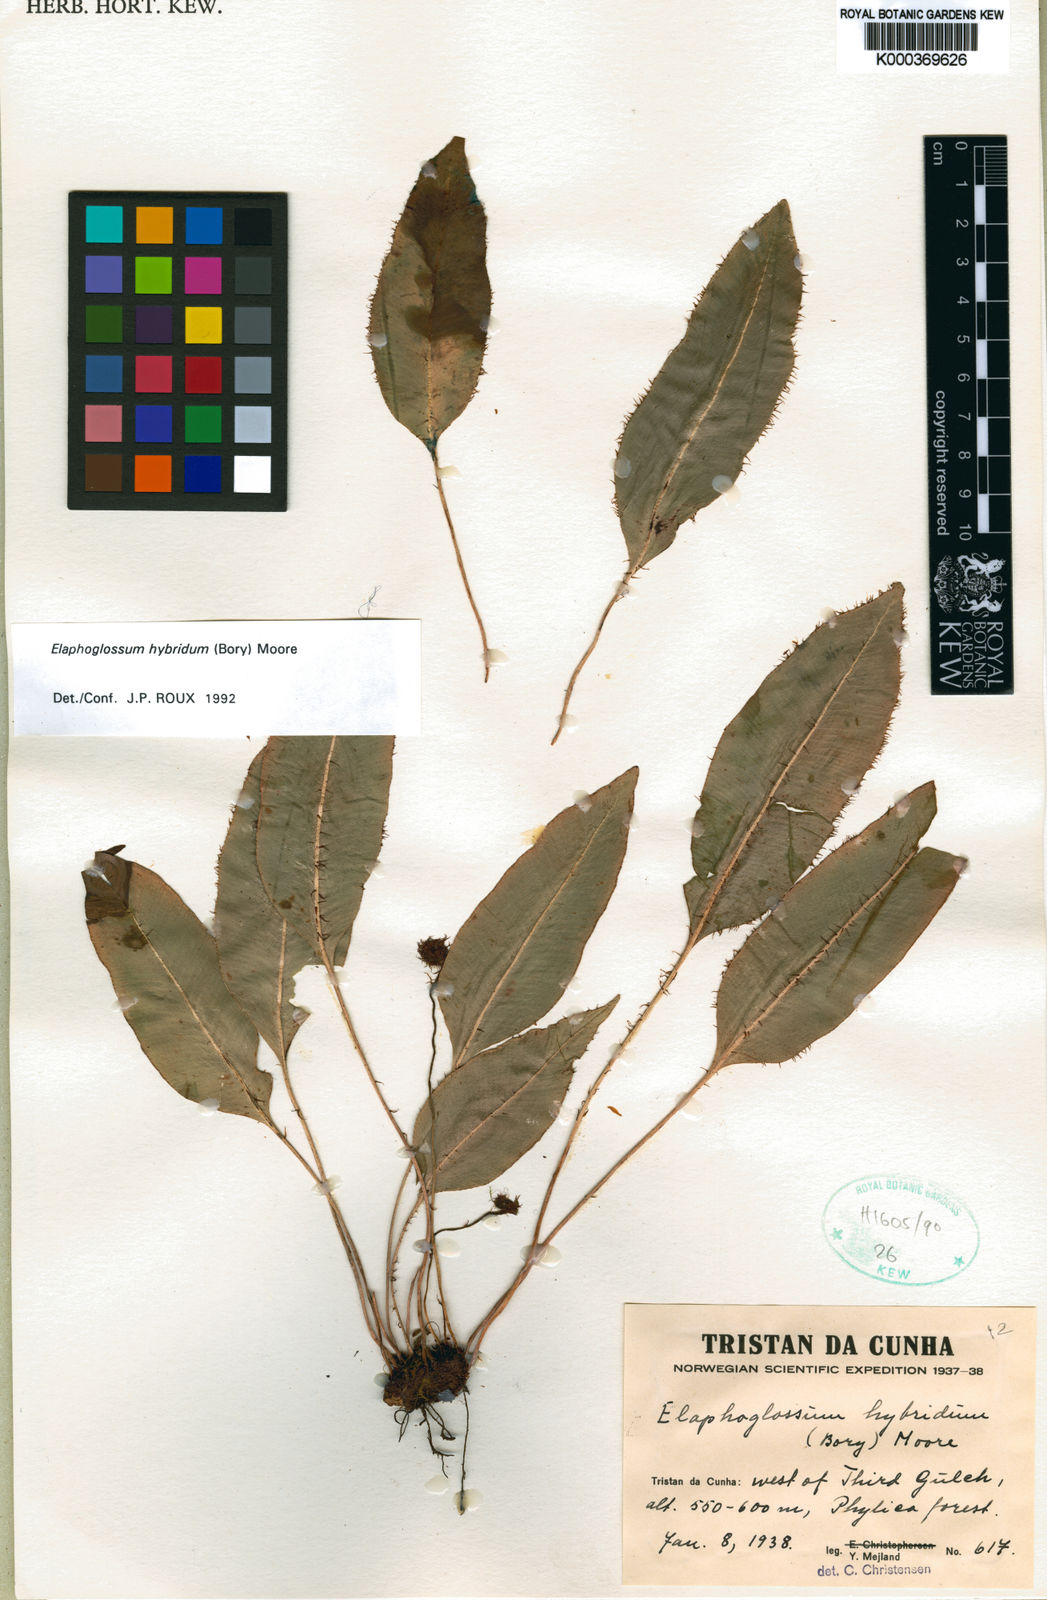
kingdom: Plantae
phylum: Tracheophyta
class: Polypodiopsida
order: Polypodiales
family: Dryopteridaceae
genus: Elaphoglossum
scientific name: Elaphoglossum hybridum
